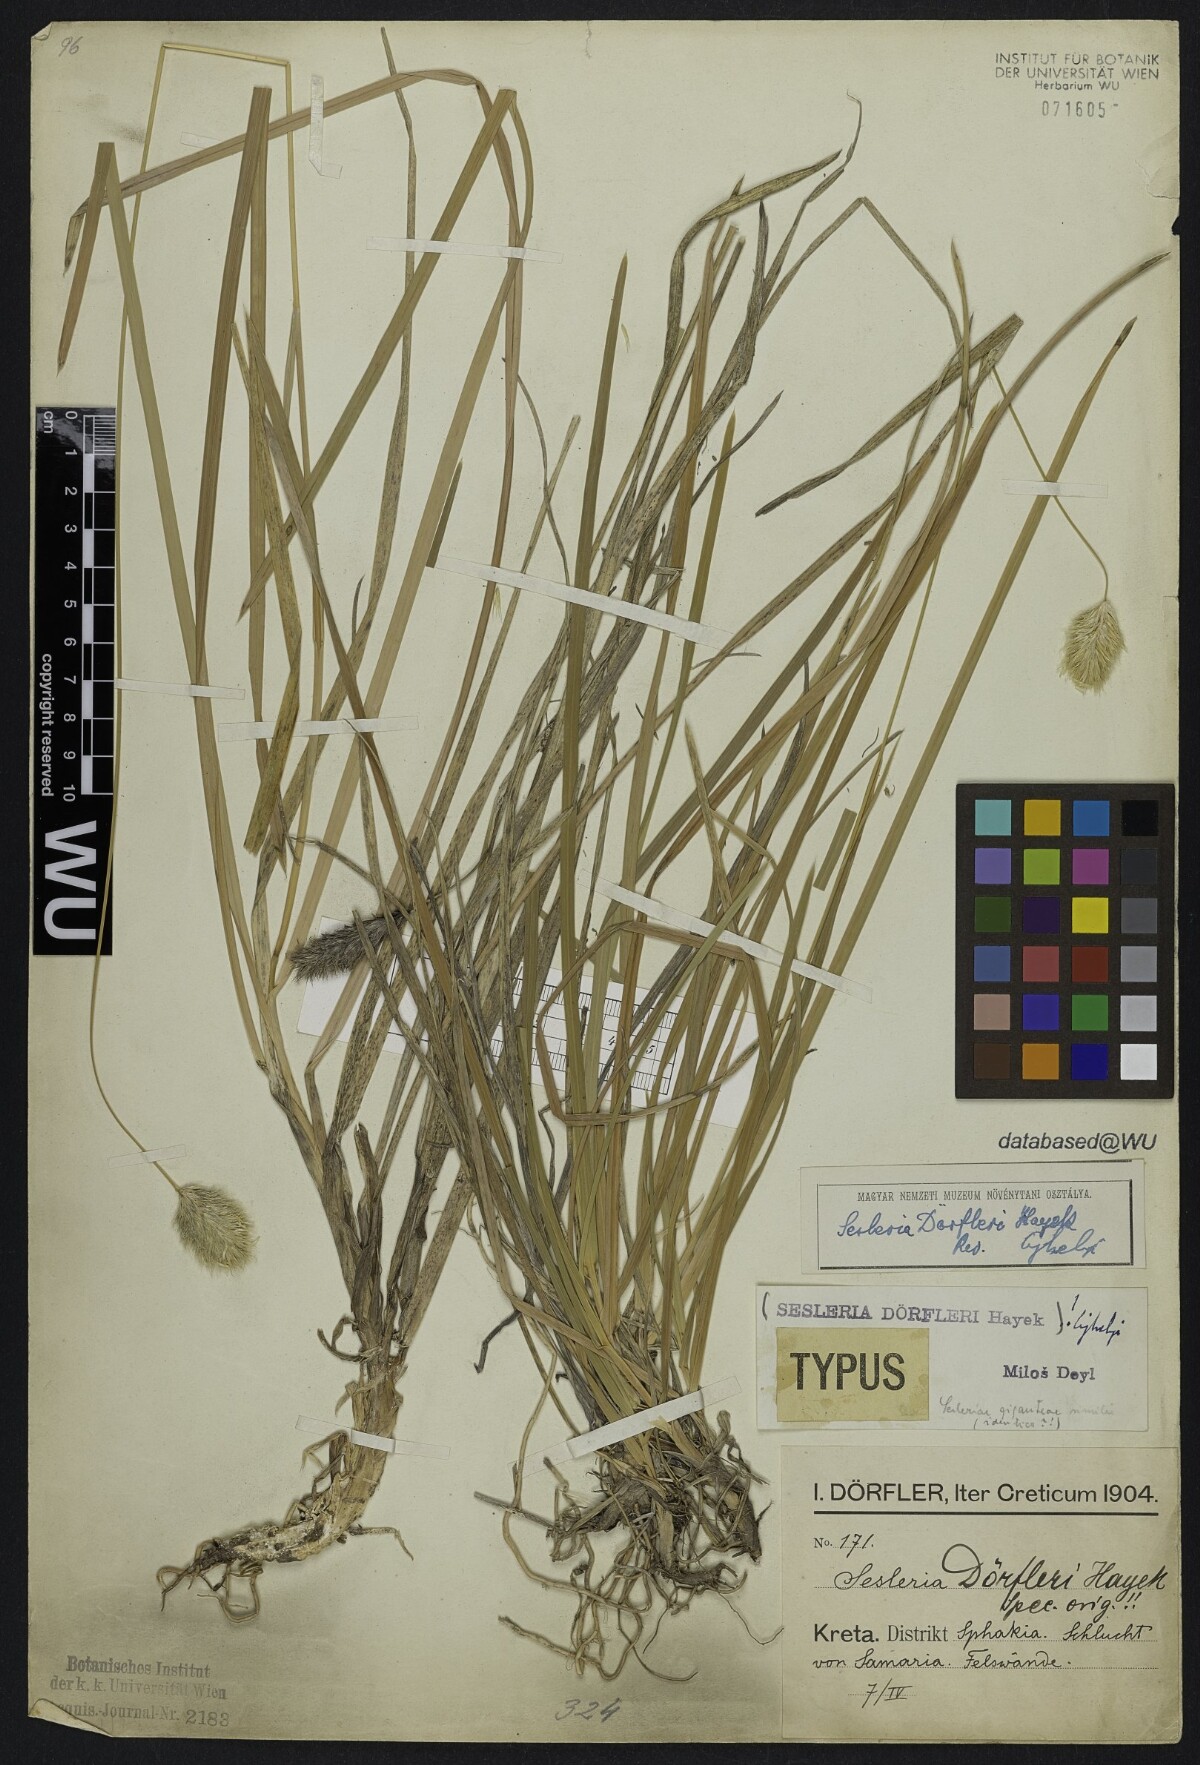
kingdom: Plantae
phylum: Tracheophyta
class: Liliopsida
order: Poales
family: Poaceae
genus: Sesleria
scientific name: Sesleria doerfleri
